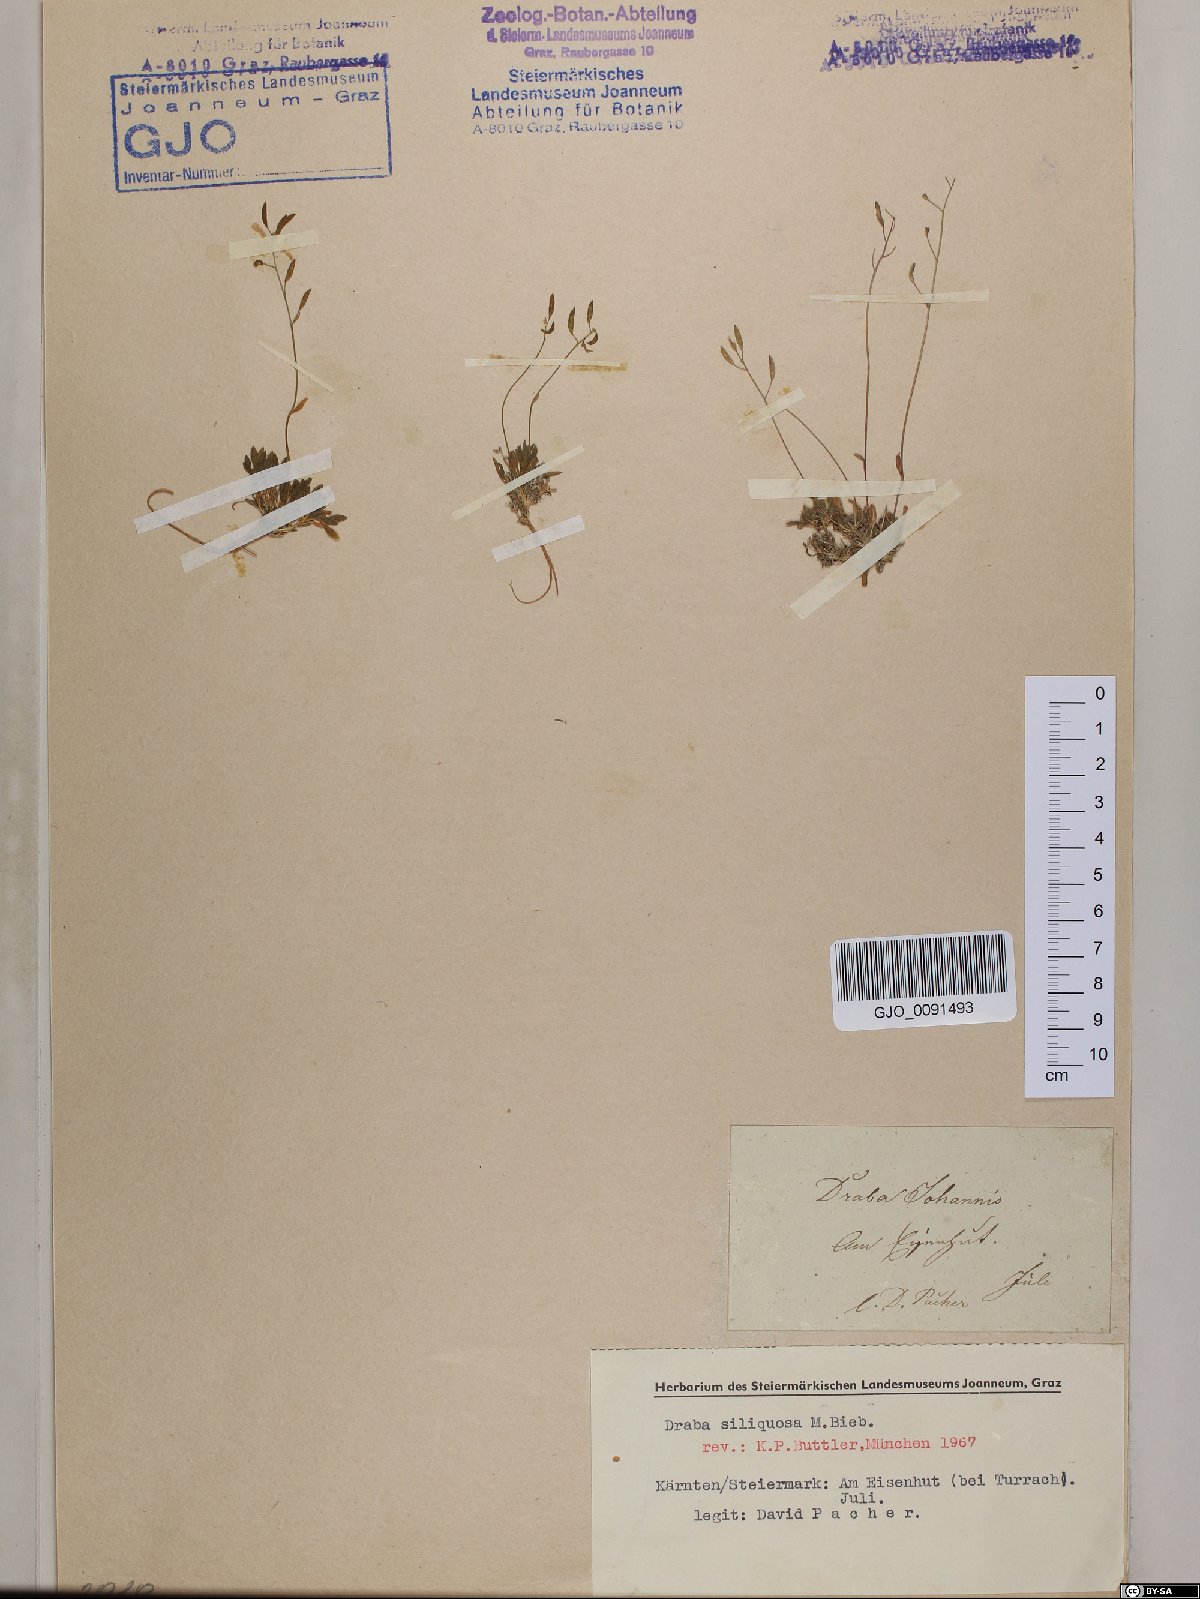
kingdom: Plantae
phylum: Tracheophyta
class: Magnoliopsida
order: Brassicales
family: Brassicaceae
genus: Draba
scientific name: Draba siliquosa
